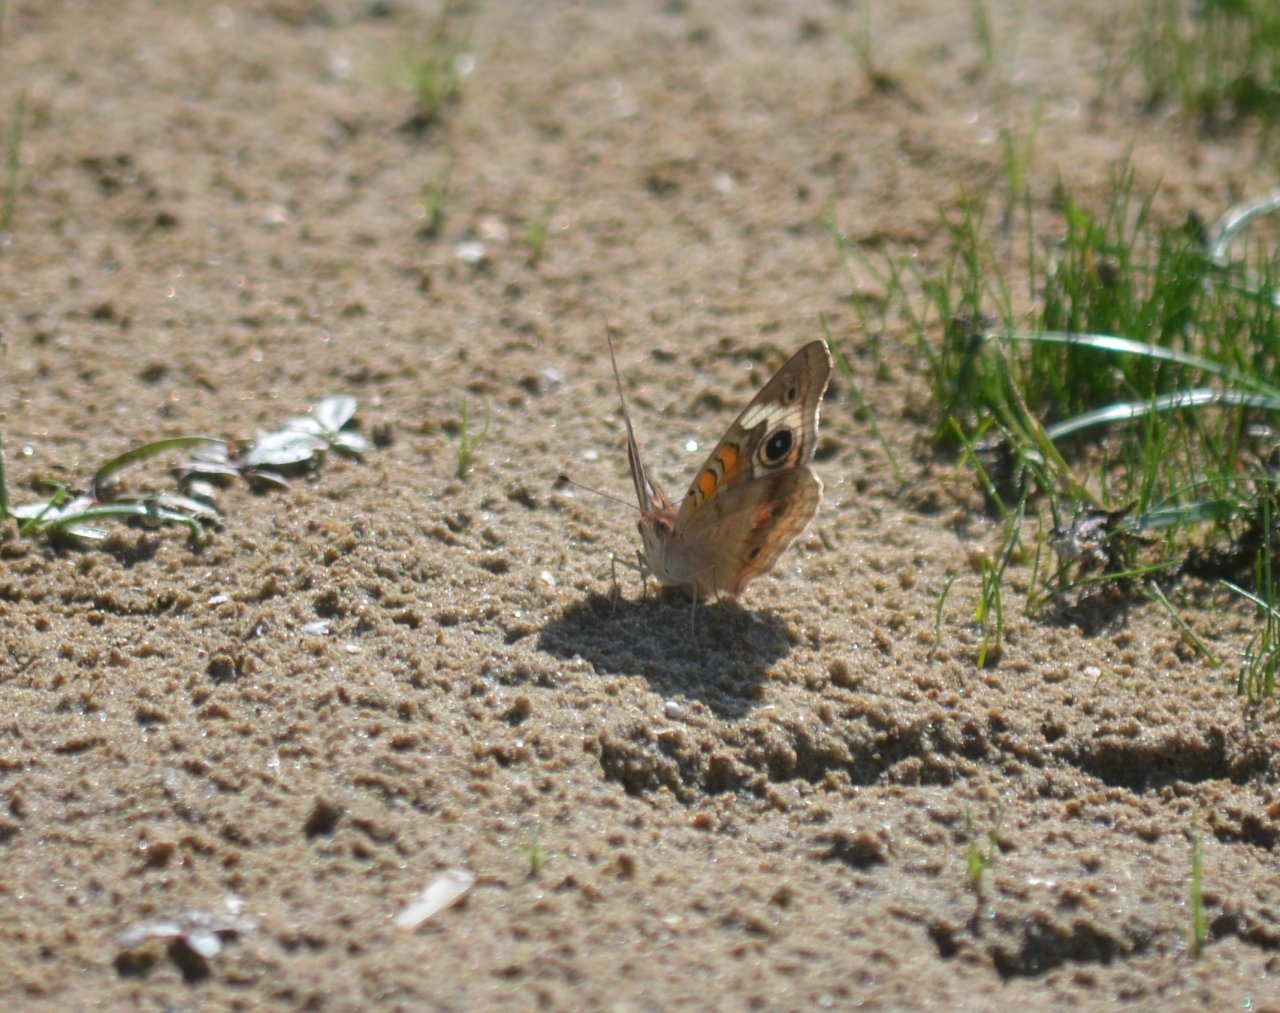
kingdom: Animalia
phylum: Arthropoda
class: Insecta
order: Lepidoptera
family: Nymphalidae
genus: Junonia
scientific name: Junonia coenia
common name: Common Buckeye
